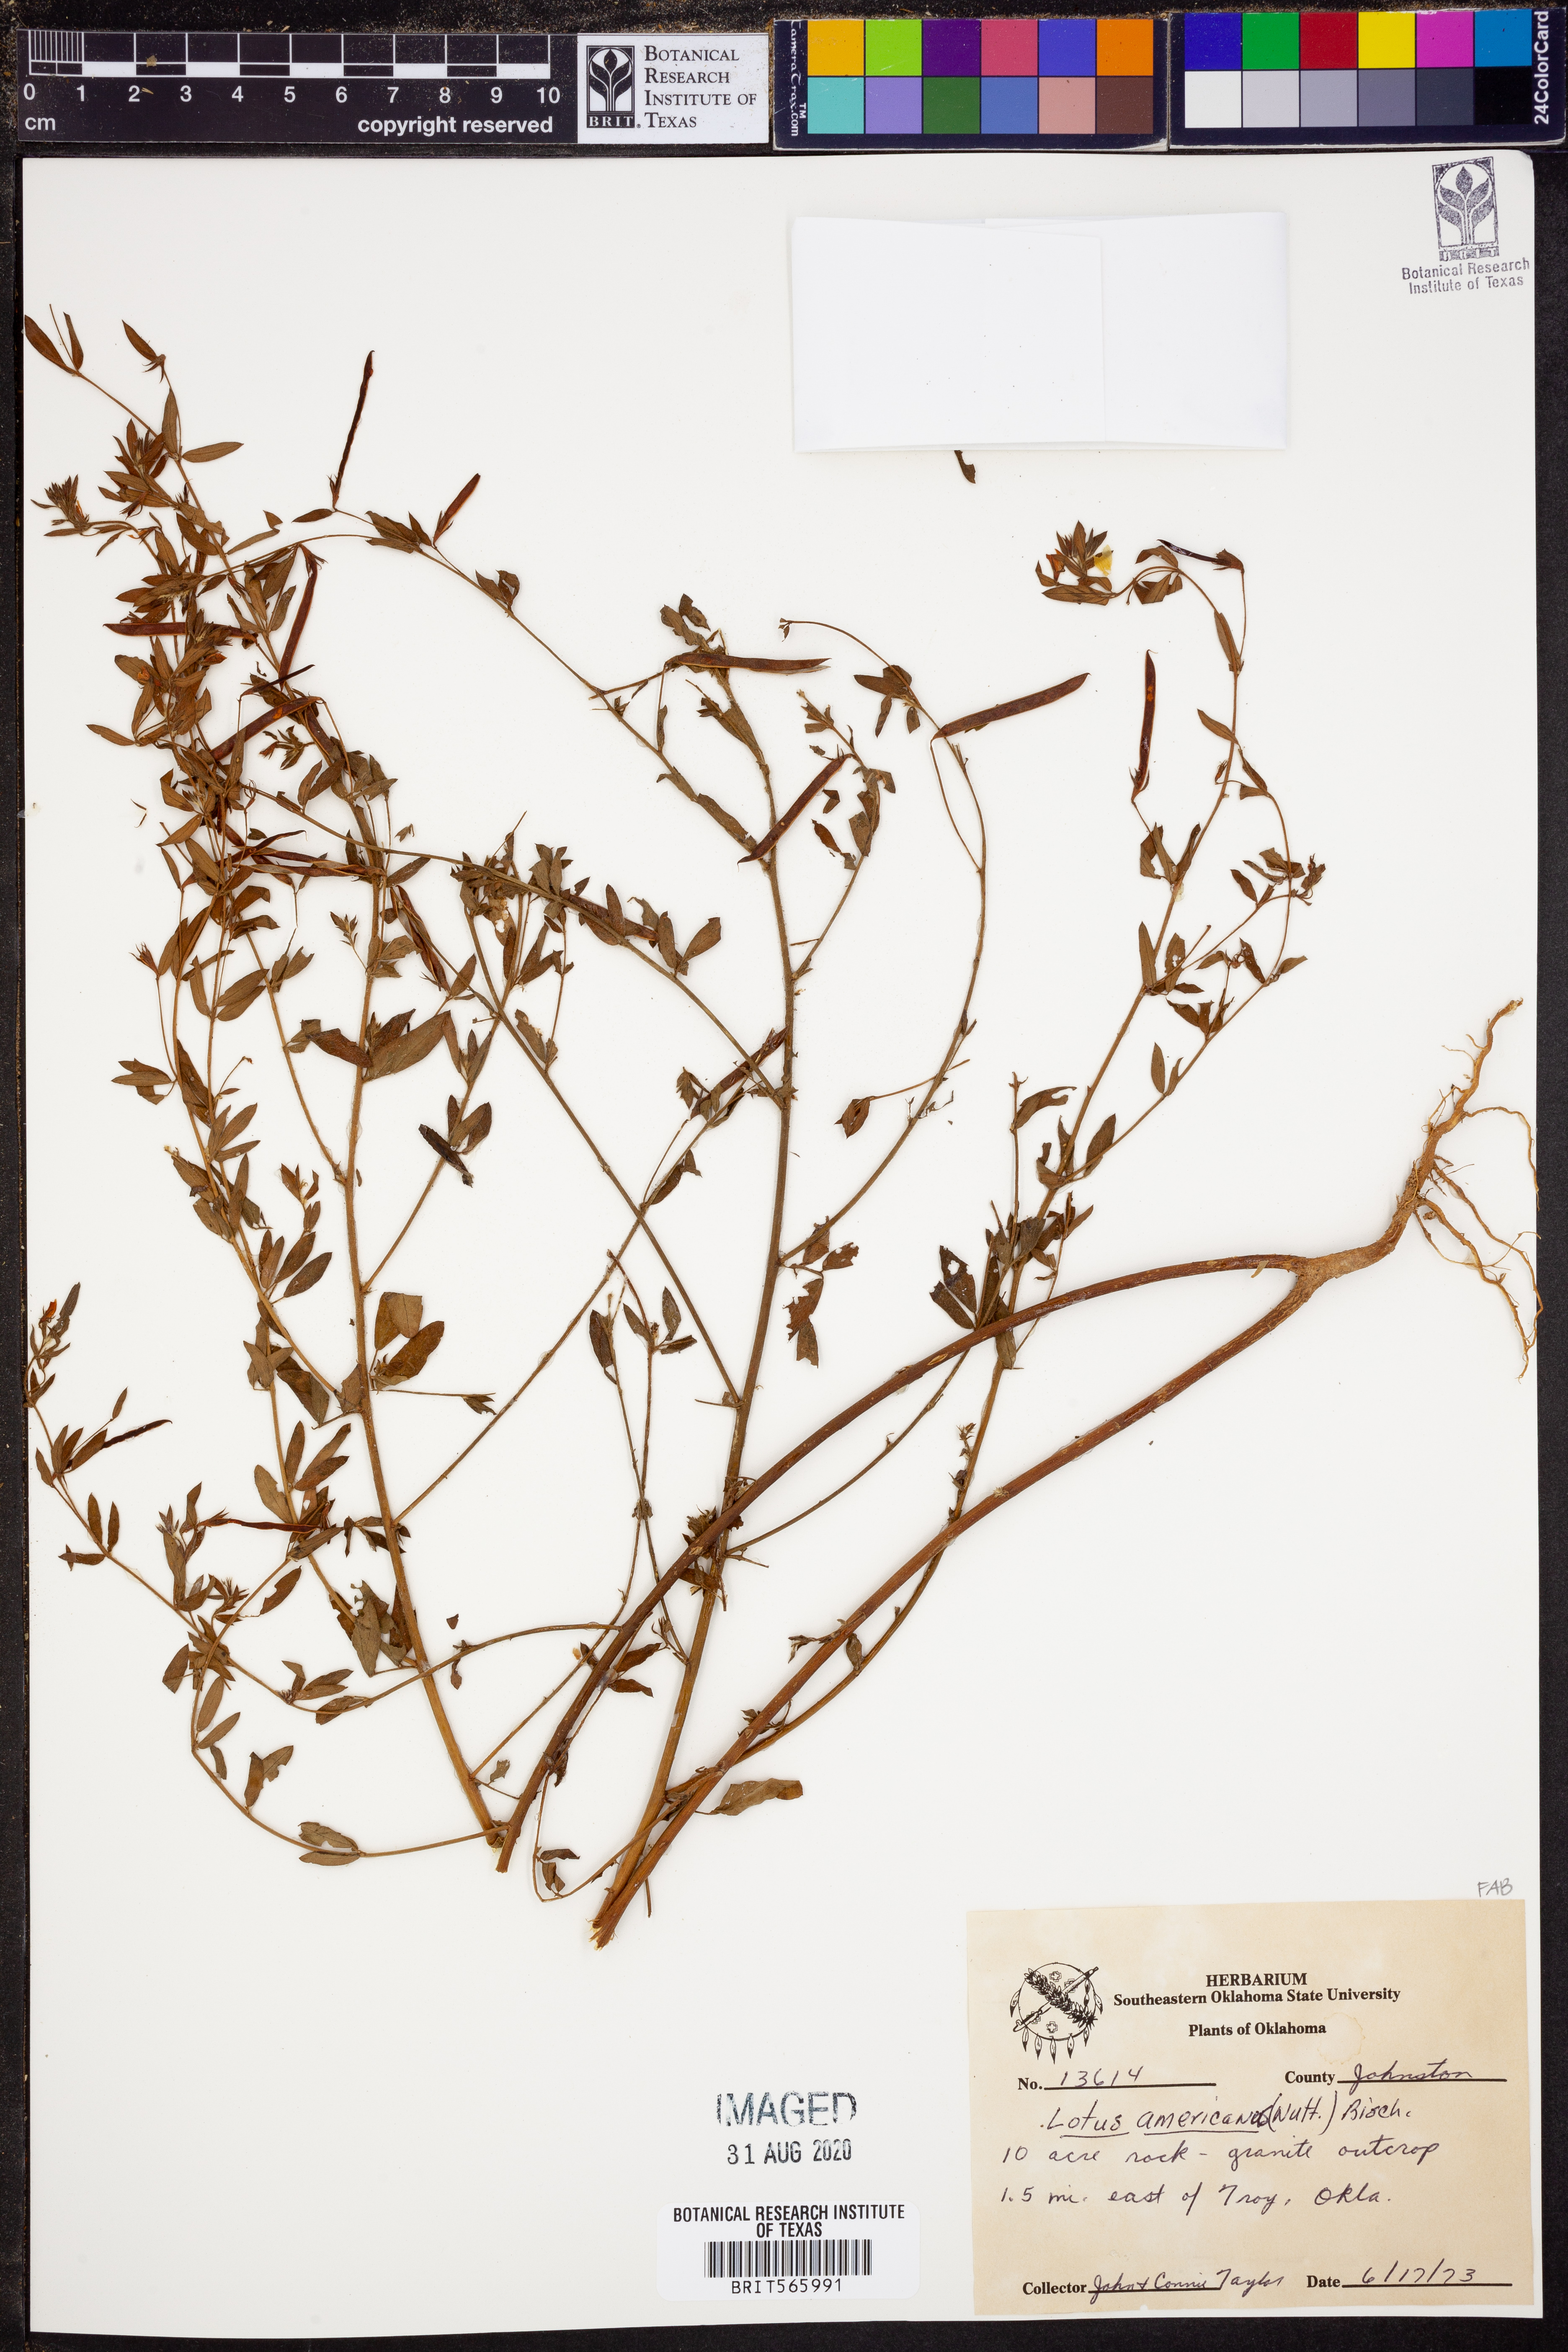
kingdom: Plantae
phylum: Tracheophyta
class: Magnoliopsida
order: Fabales
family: Fabaceae
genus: Acmispon
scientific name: Acmispon americanus
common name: American bird's-foot trefoil
